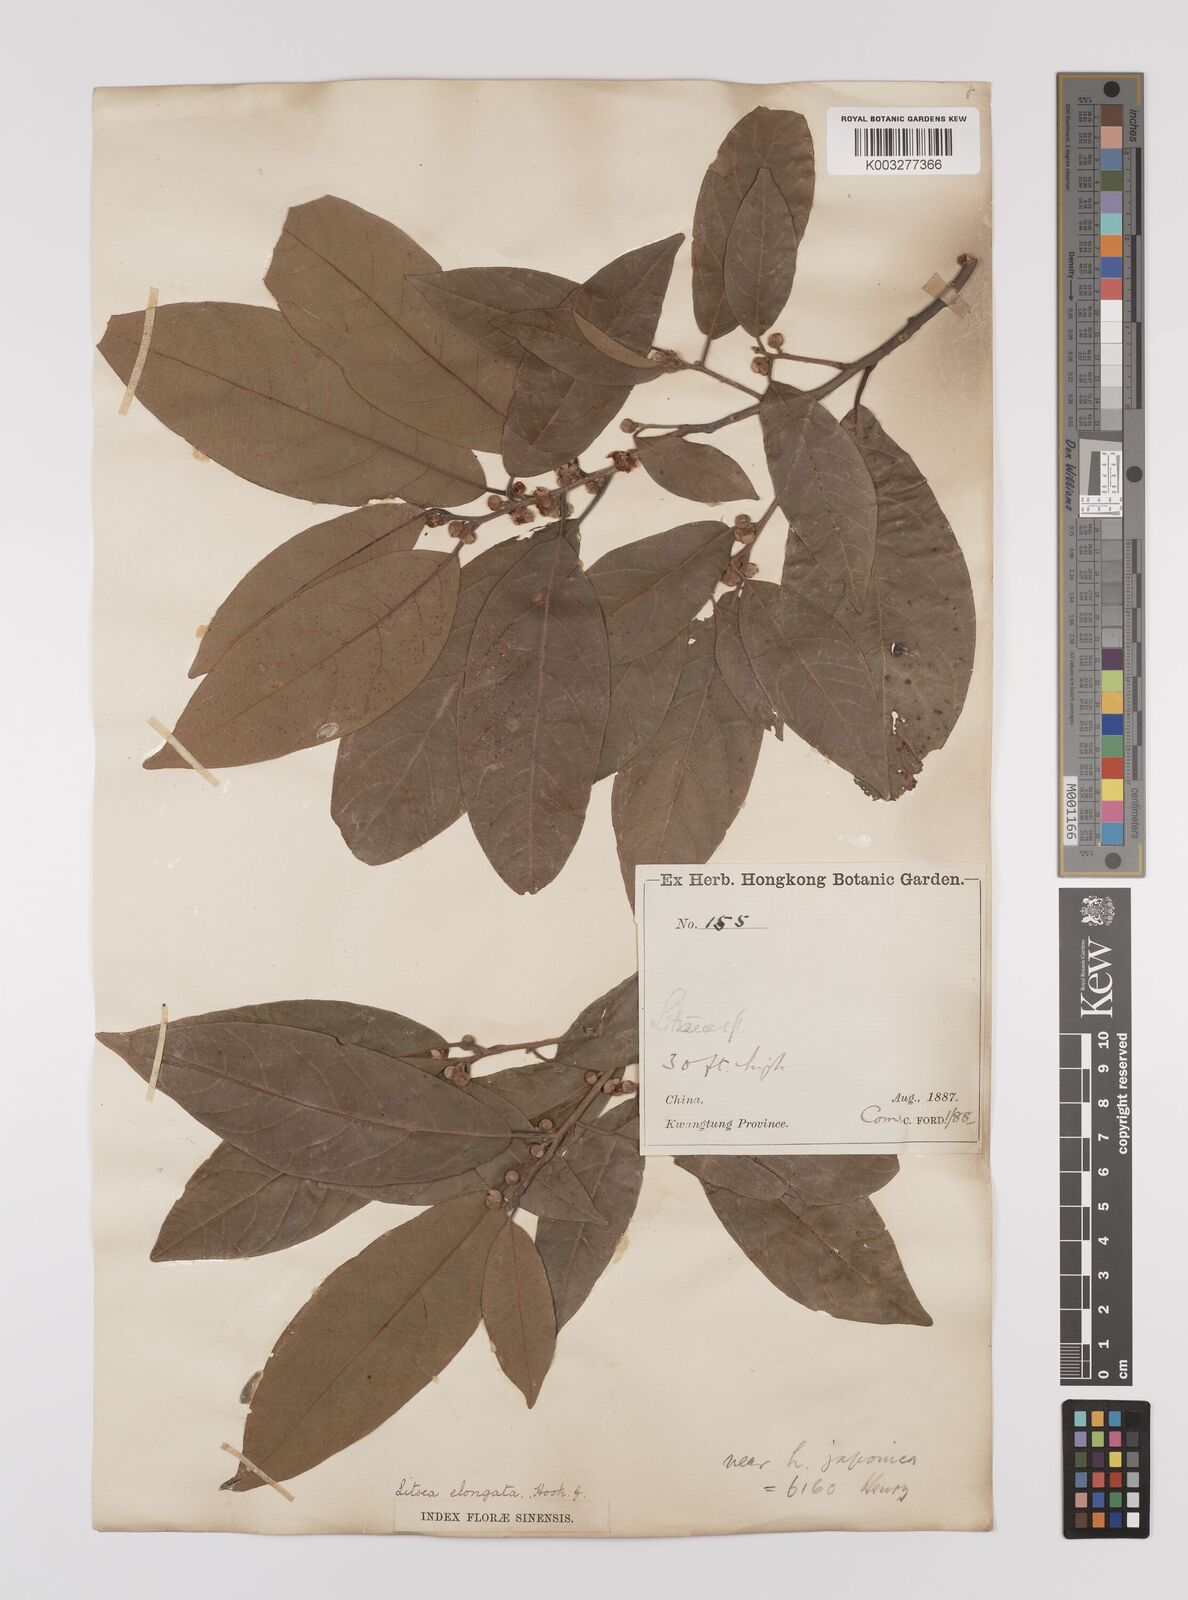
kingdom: Plantae
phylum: Tracheophyta
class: Magnoliopsida
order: Laurales
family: Lauraceae
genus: Litsea
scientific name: Litsea elongata
